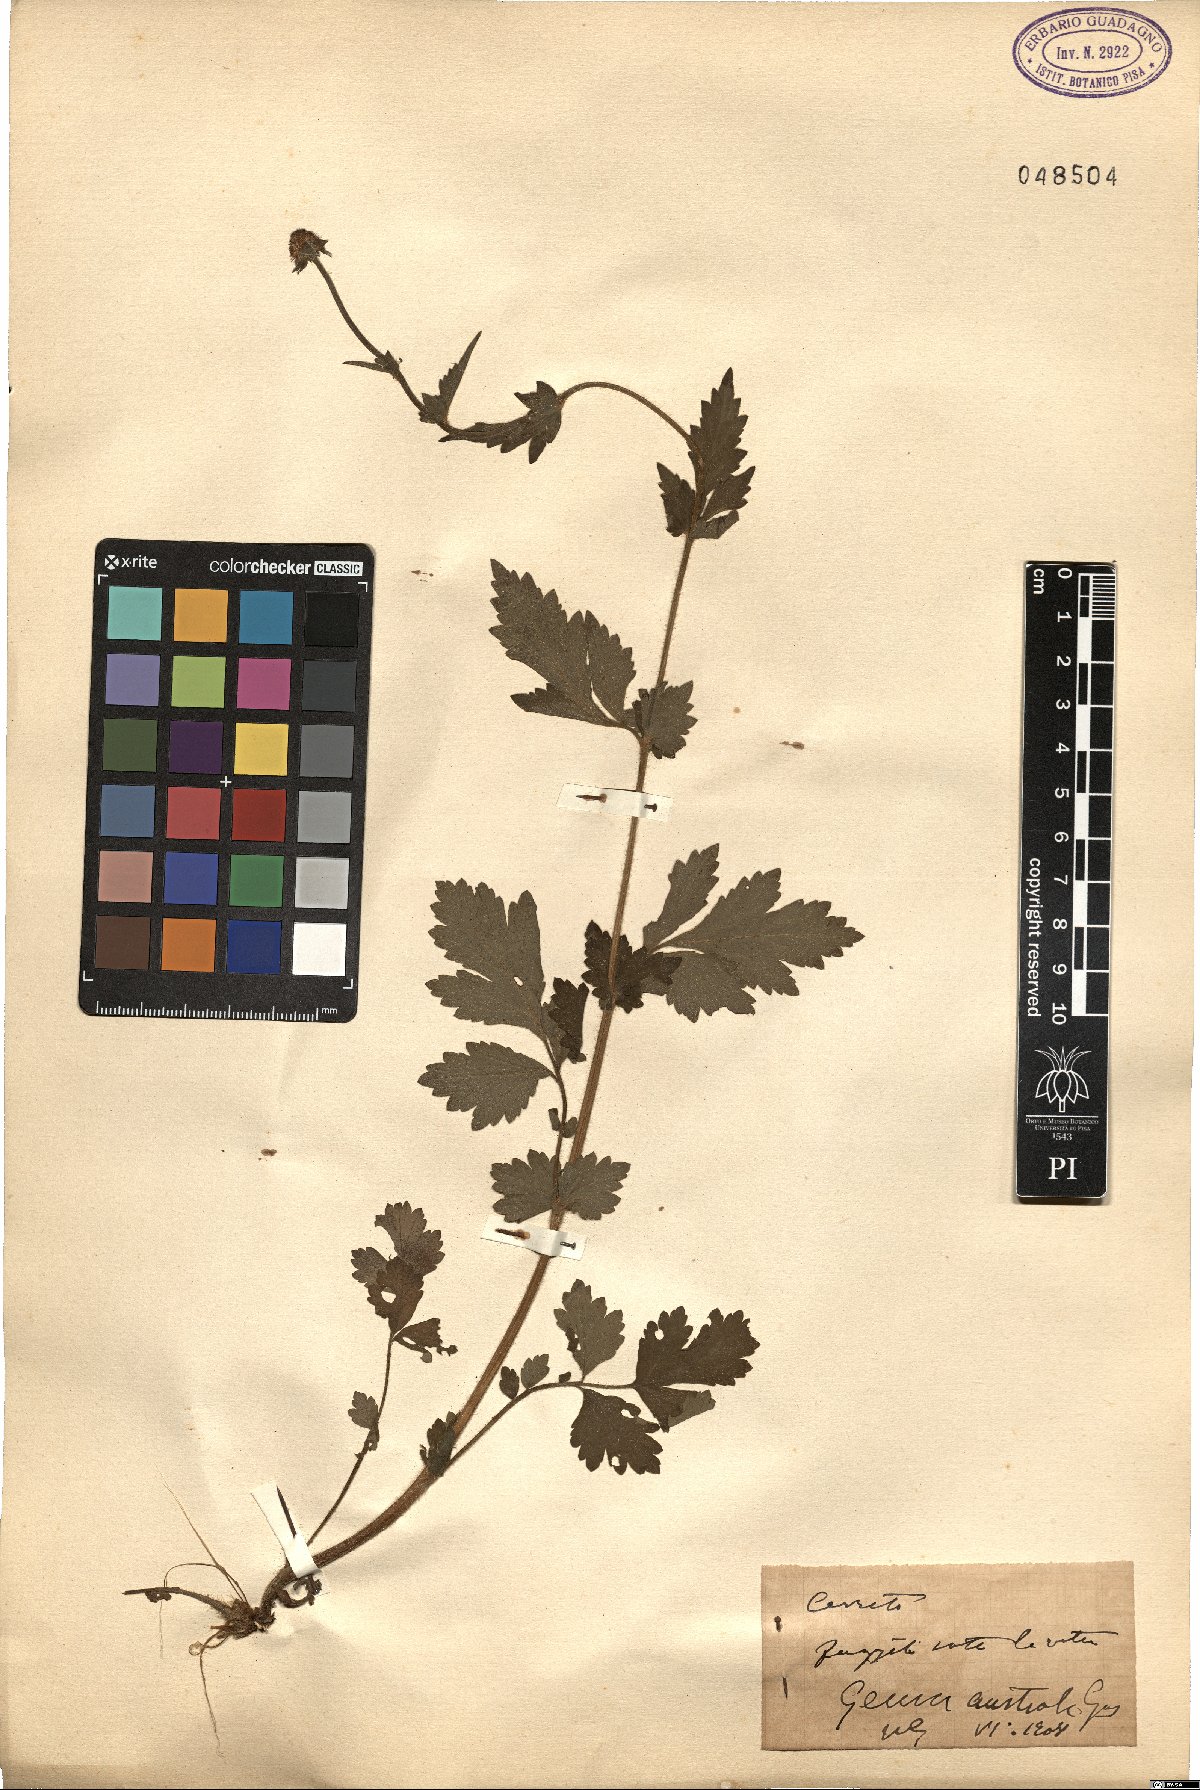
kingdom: Plantae
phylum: Tracheophyta
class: Magnoliopsida
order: Rosales
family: Rosaceae
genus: Geum
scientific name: Geum
